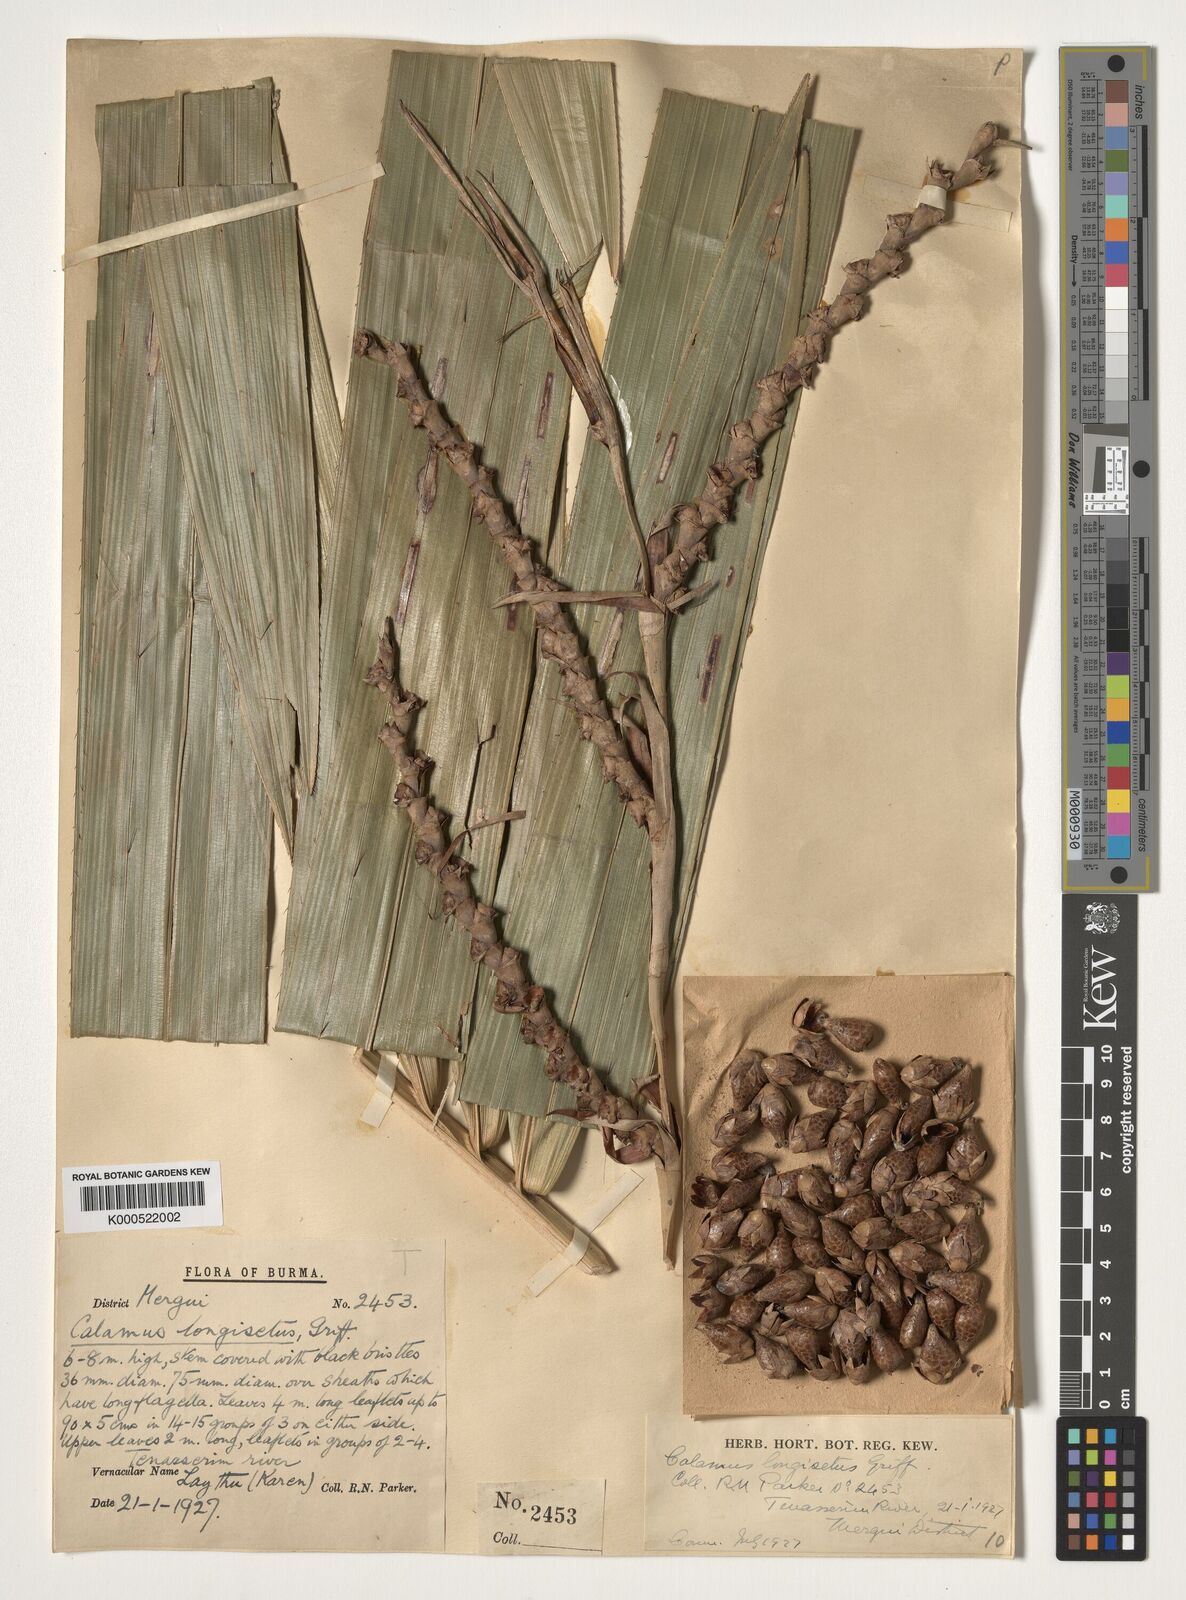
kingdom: Plantae
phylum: Tracheophyta
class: Liliopsida
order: Arecales
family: Arecaceae
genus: Calamus
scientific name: Calamus longisetus
